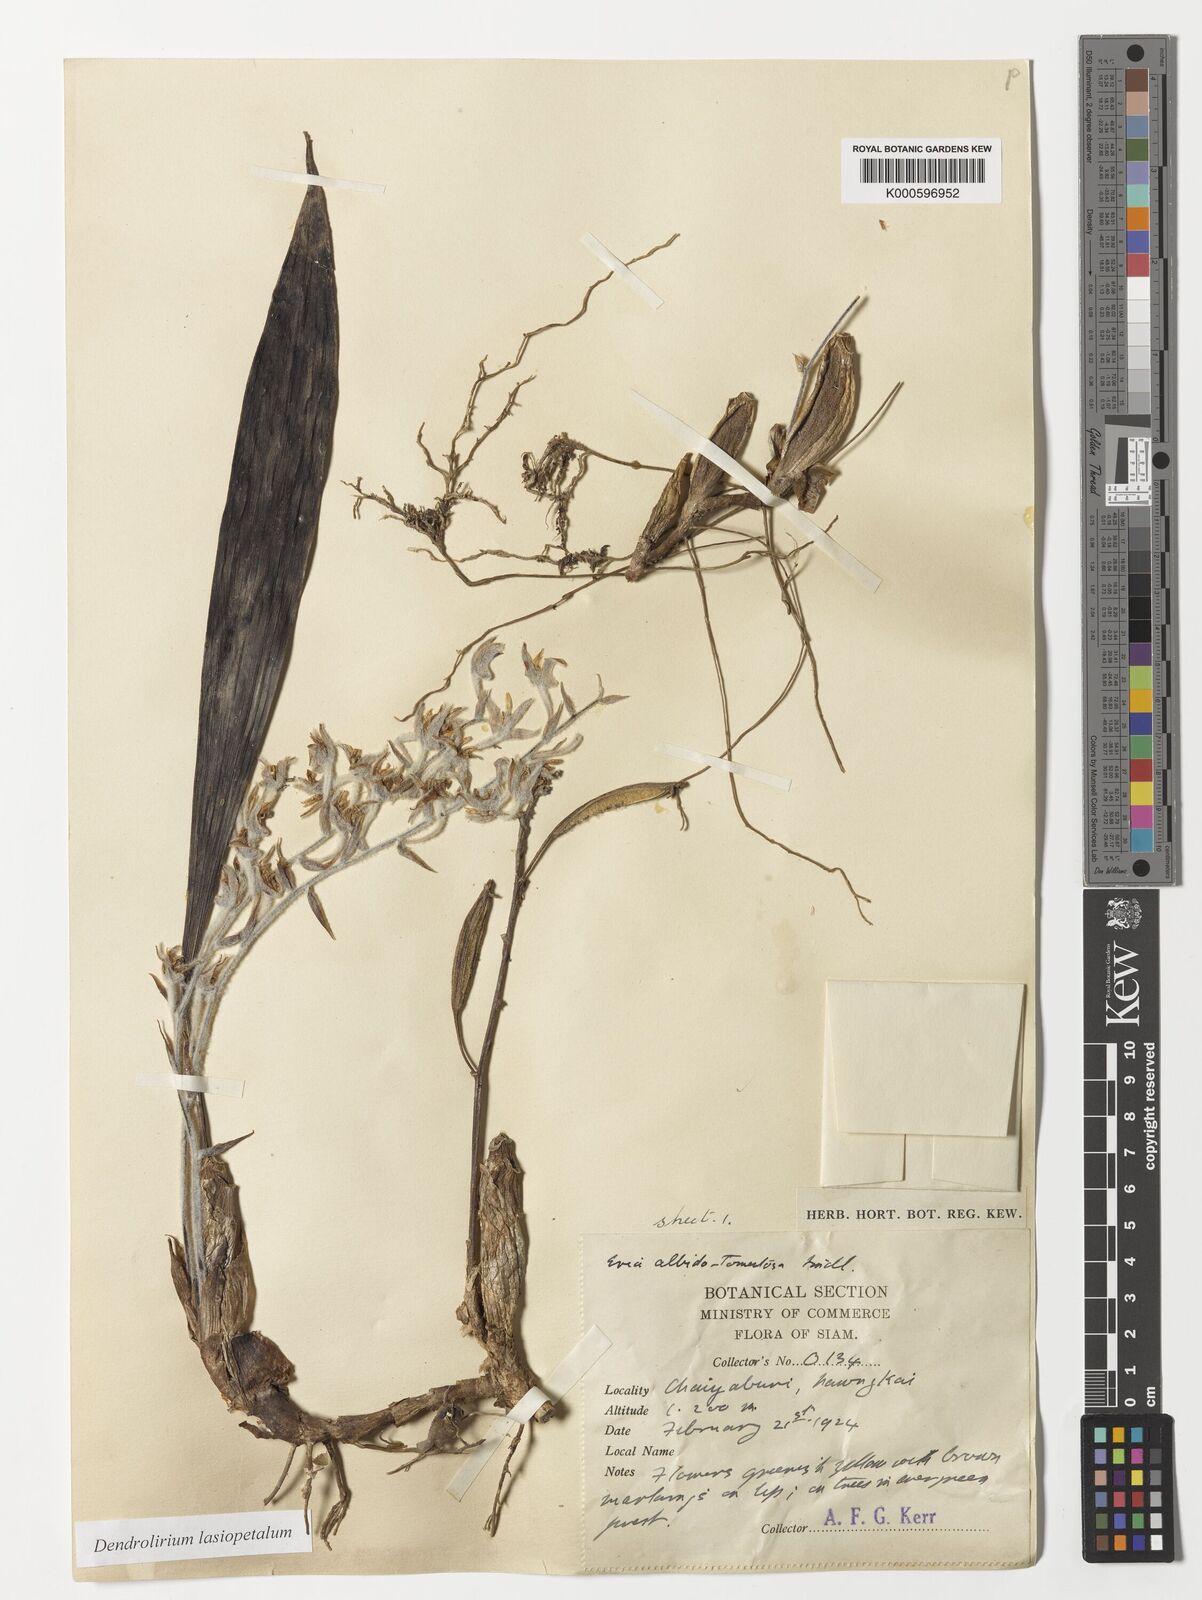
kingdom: Plantae
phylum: Tracheophyta
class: Liliopsida
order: Asparagales
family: Orchidaceae
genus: Dendrolirium
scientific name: Dendrolirium lasiopetalum
